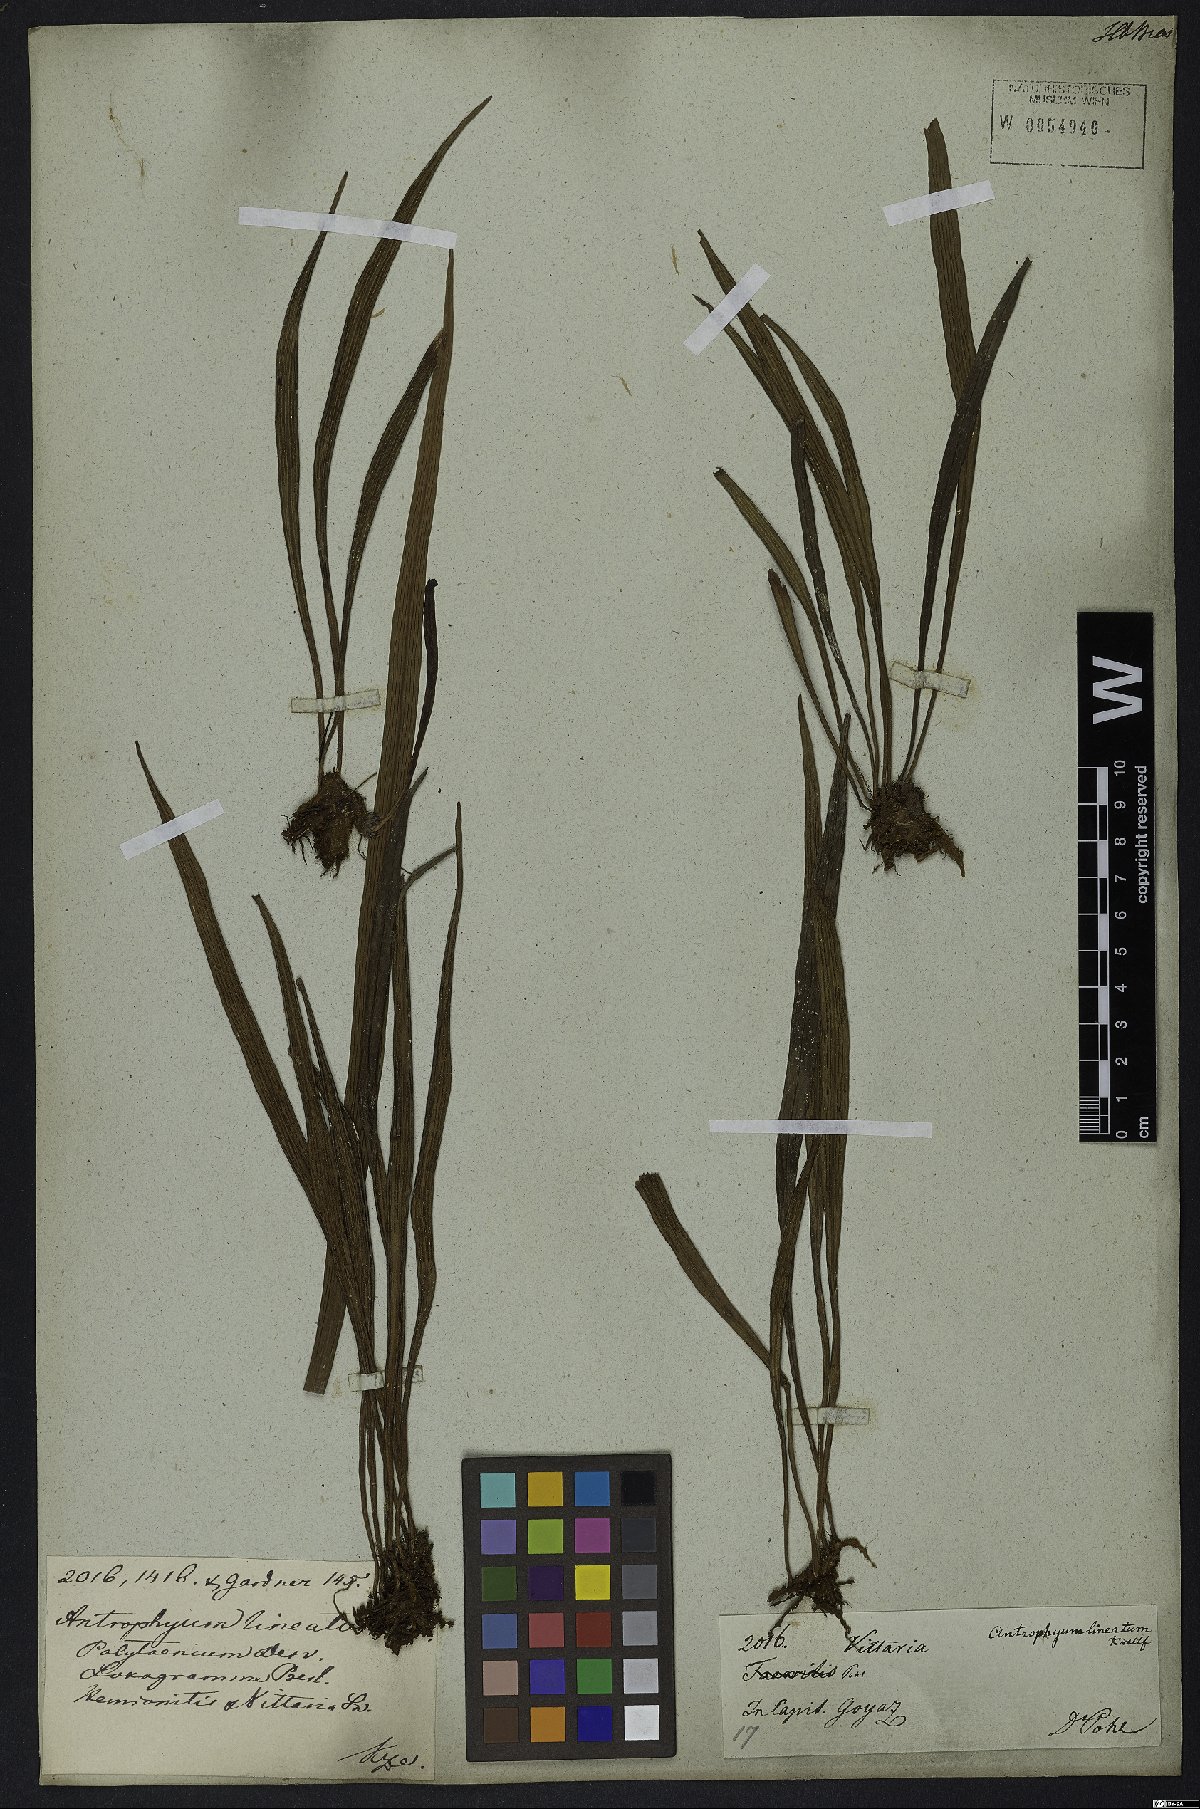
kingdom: Plantae
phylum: Tracheophyta
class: Polypodiopsida
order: Polypodiales
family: Pteridaceae
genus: Polytaenium
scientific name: Polytaenium lineatum
